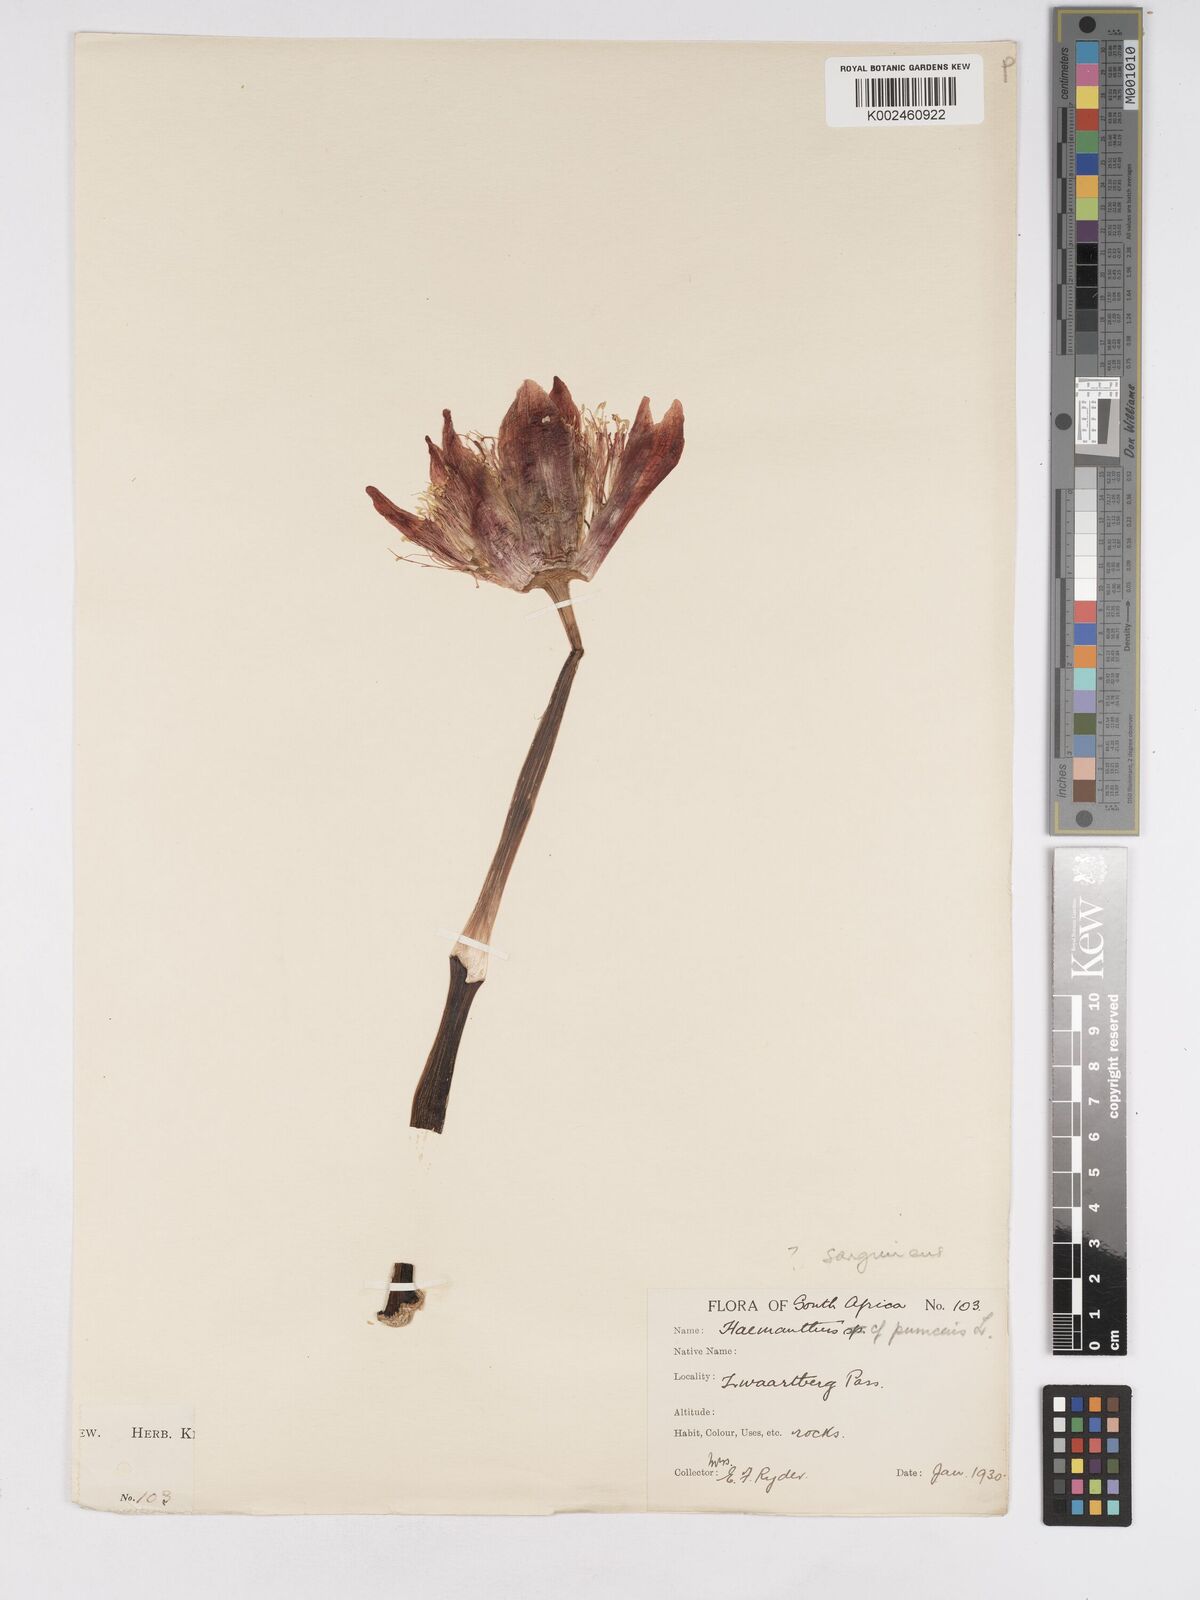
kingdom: Plantae
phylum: Tracheophyta
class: Liliopsida
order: Asparagales
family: Amaryllidaceae
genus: Haemanthus
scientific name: Haemanthus sanguineus
